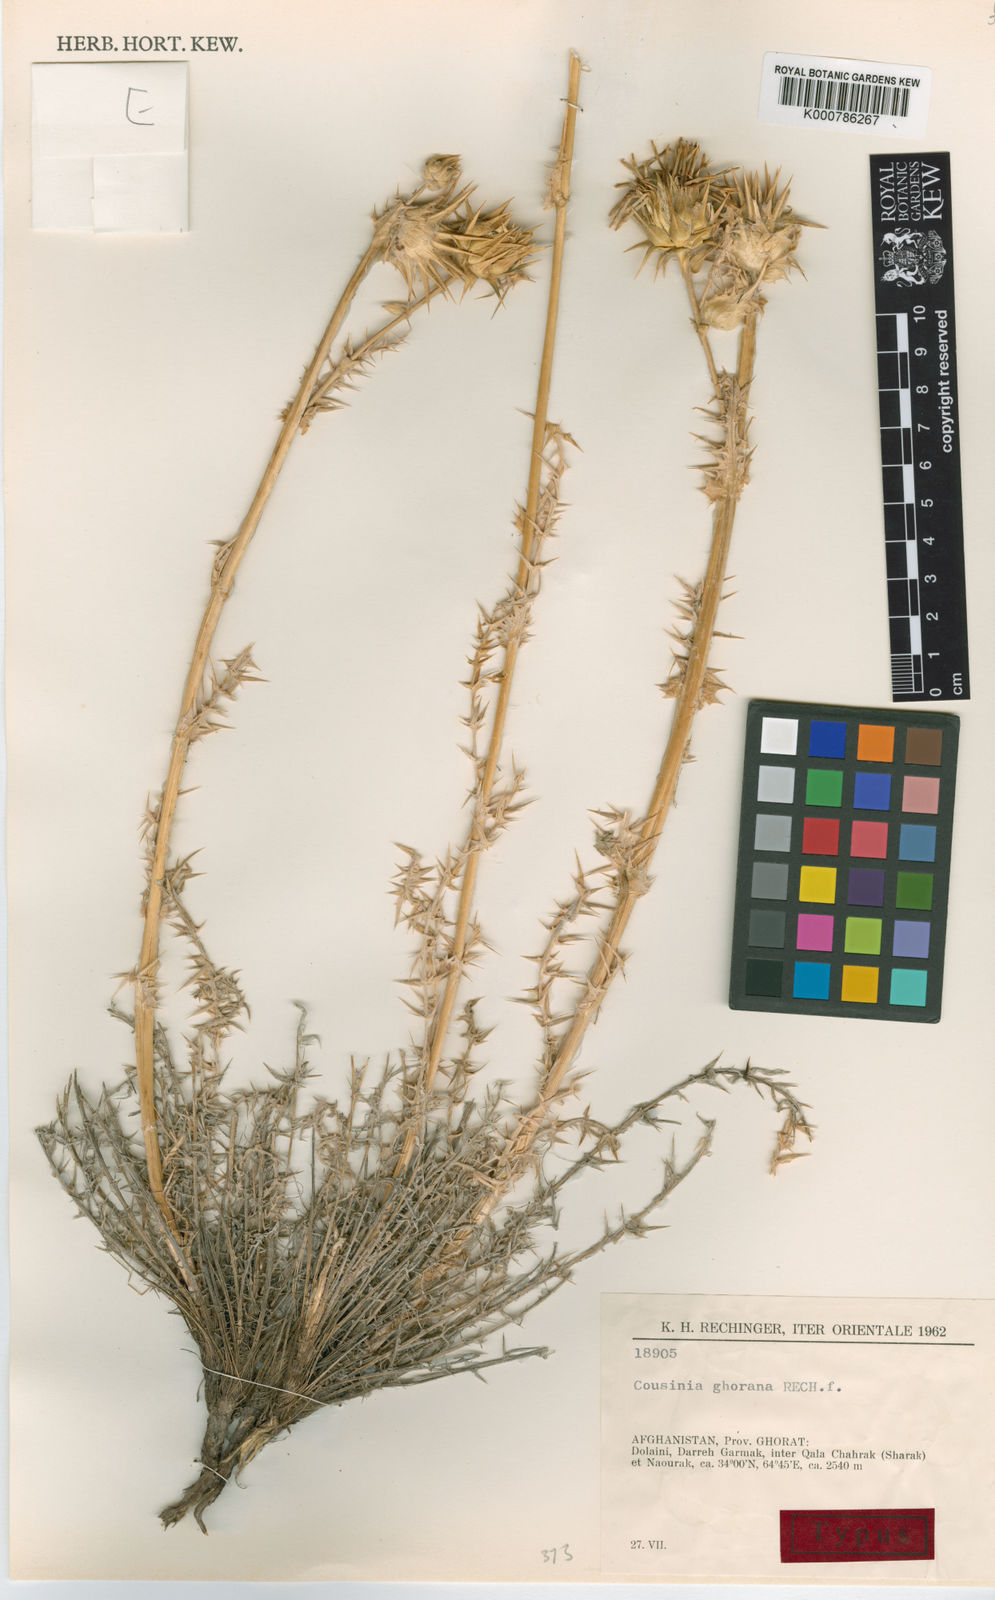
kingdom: Plantae
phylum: Tracheophyta
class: Magnoliopsida
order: Asterales
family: Asteraceae
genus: Cousinia
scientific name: Cousinia ghorana
